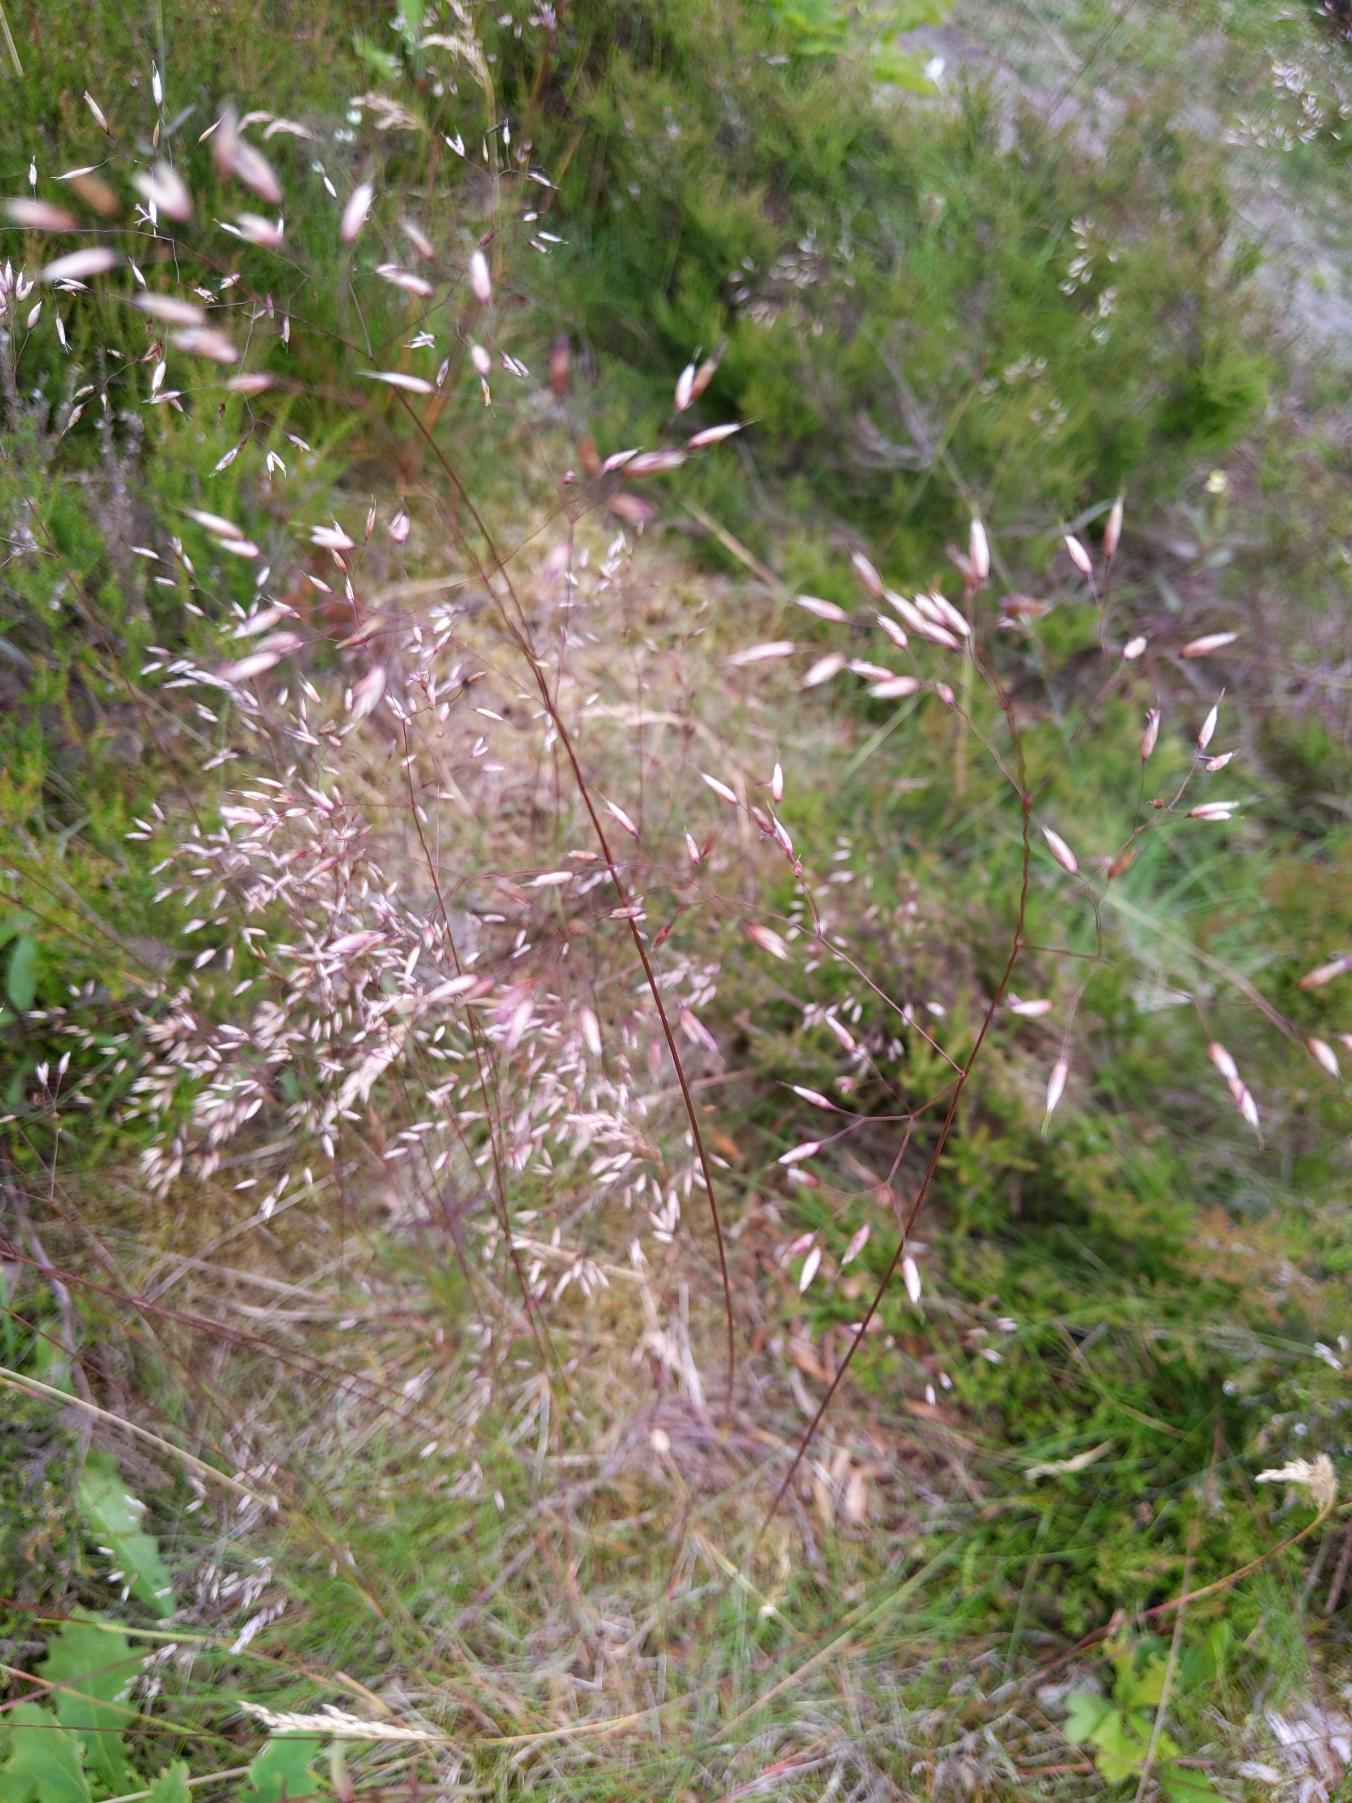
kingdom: Plantae
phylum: Tracheophyta
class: Liliopsida
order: Poales
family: Poaceae
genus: Avenella
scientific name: Avenella flexuosa
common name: Bølget bunke
